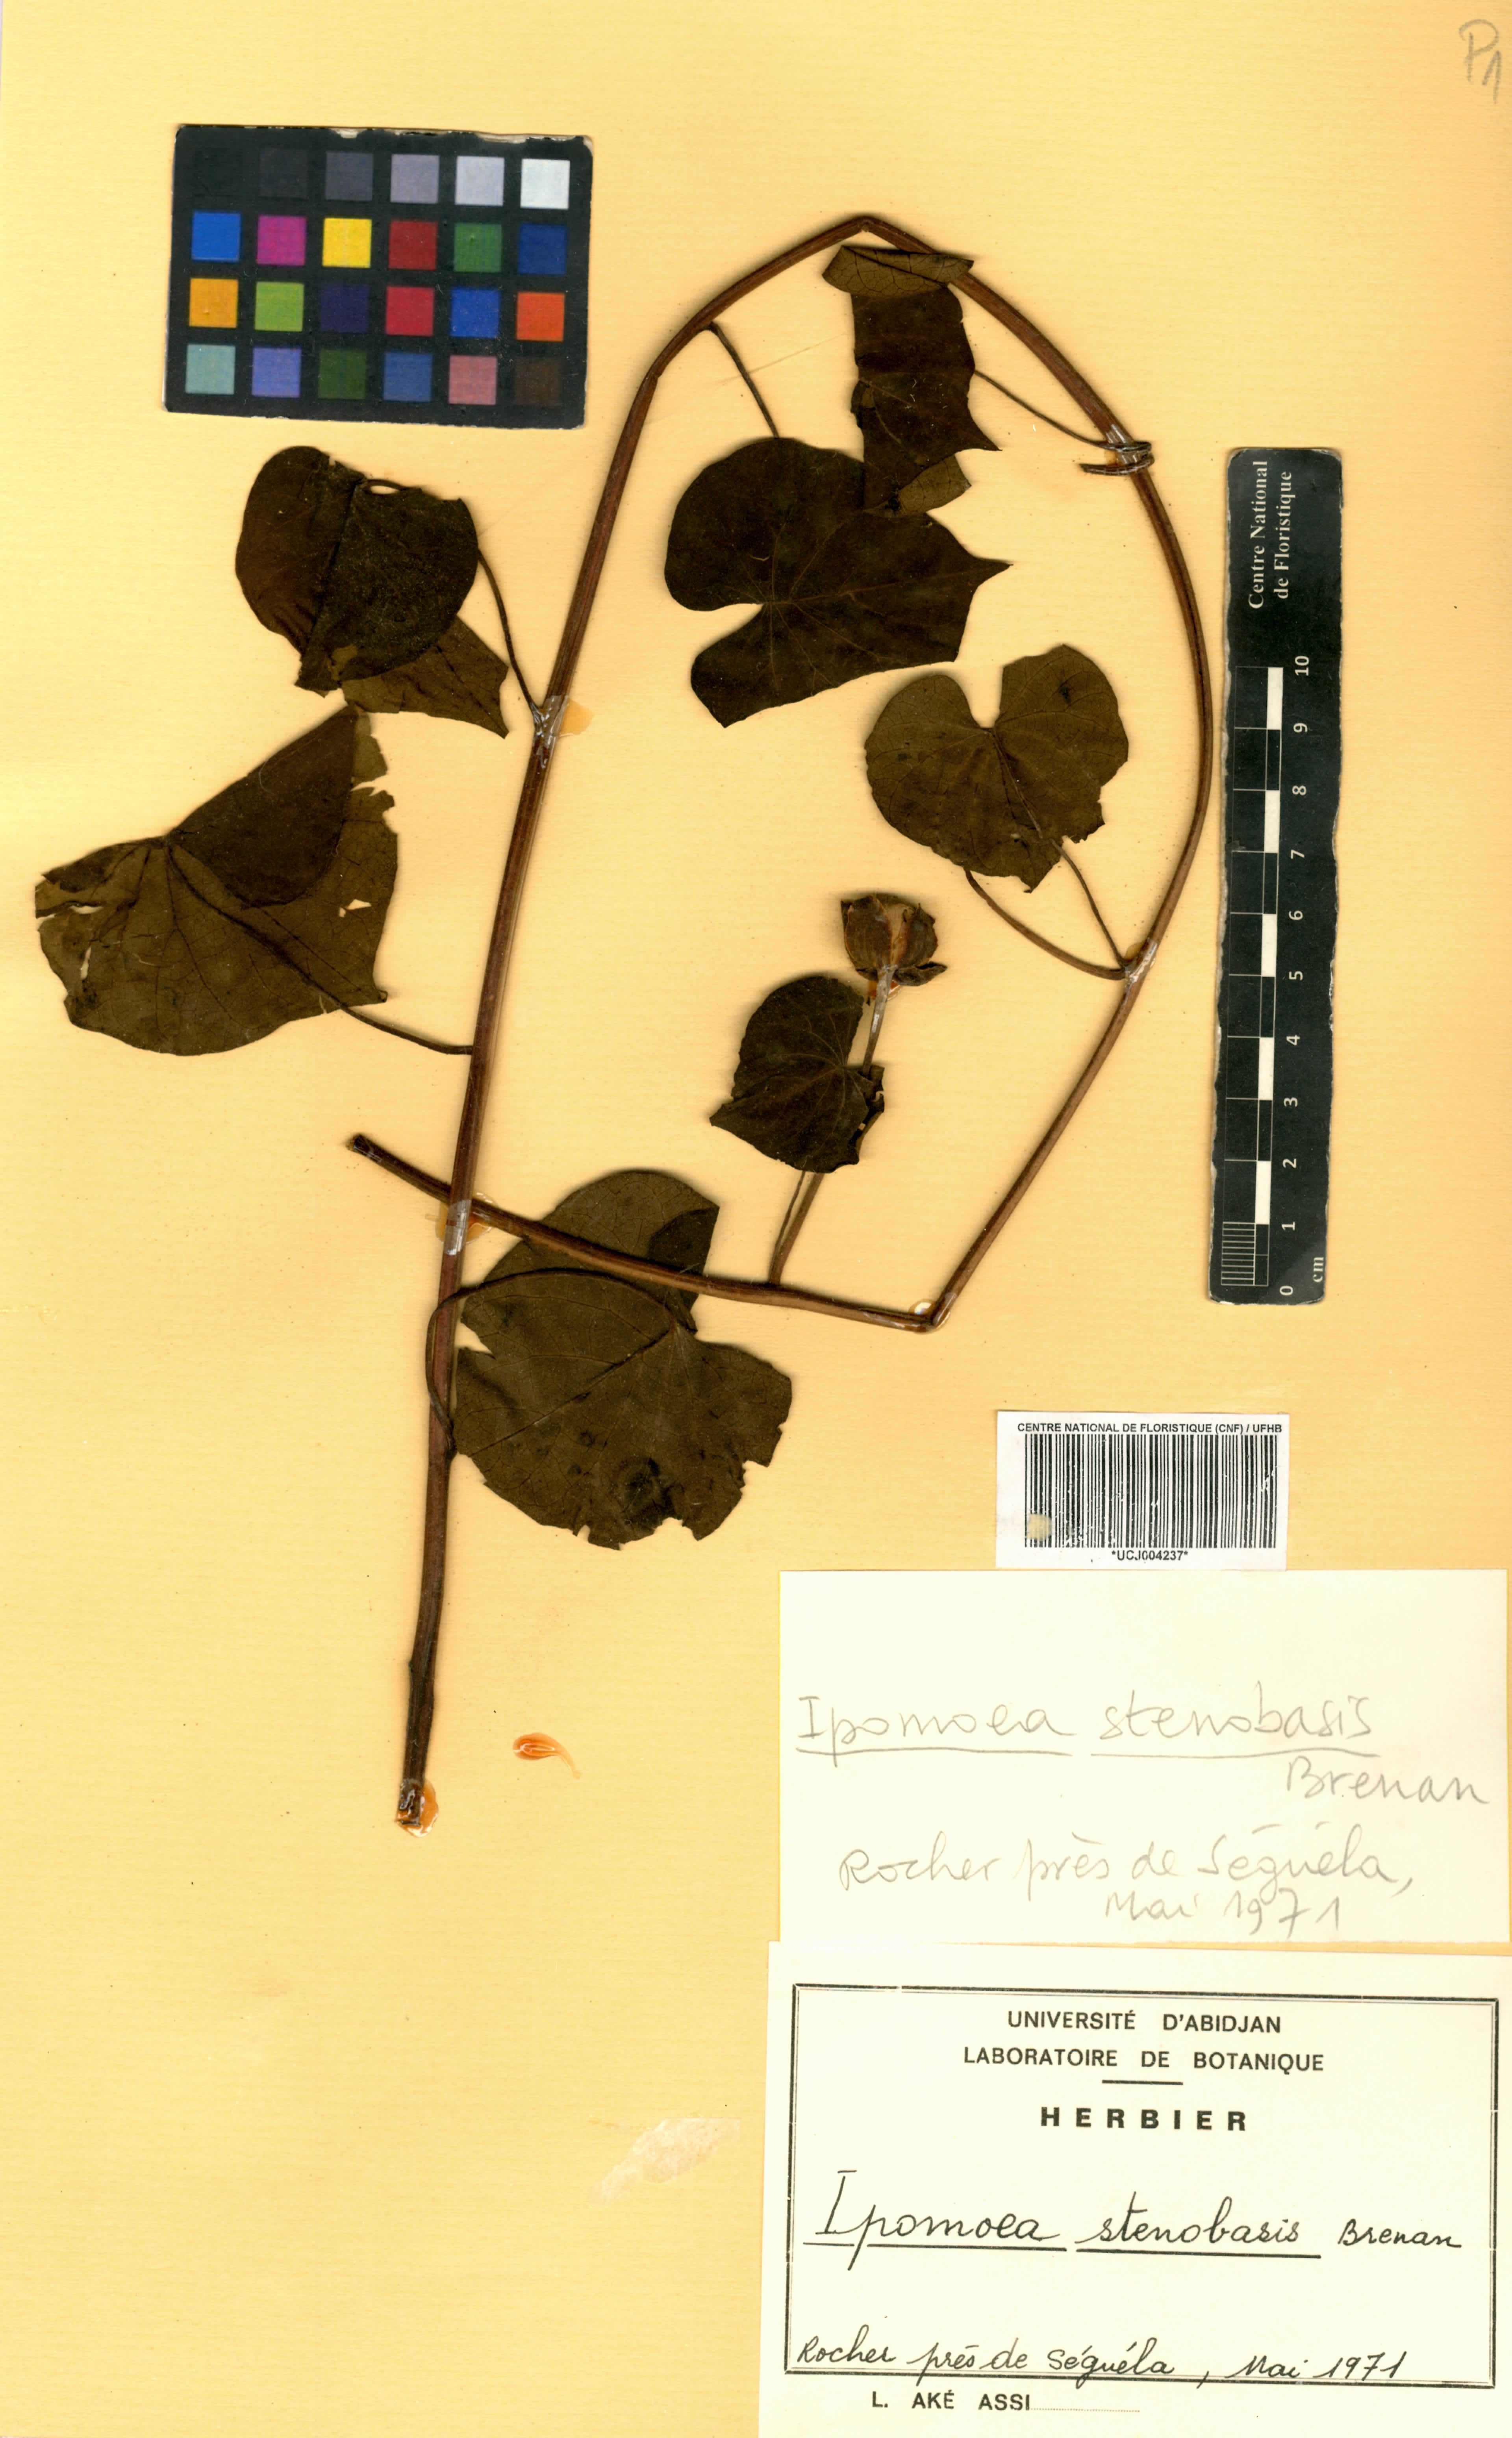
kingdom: Plantae
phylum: Tracheophyta
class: Magnoliopsida
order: Solanales
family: Convolvulaceae
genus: Ipomoea
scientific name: Ipomoea stenobasis
